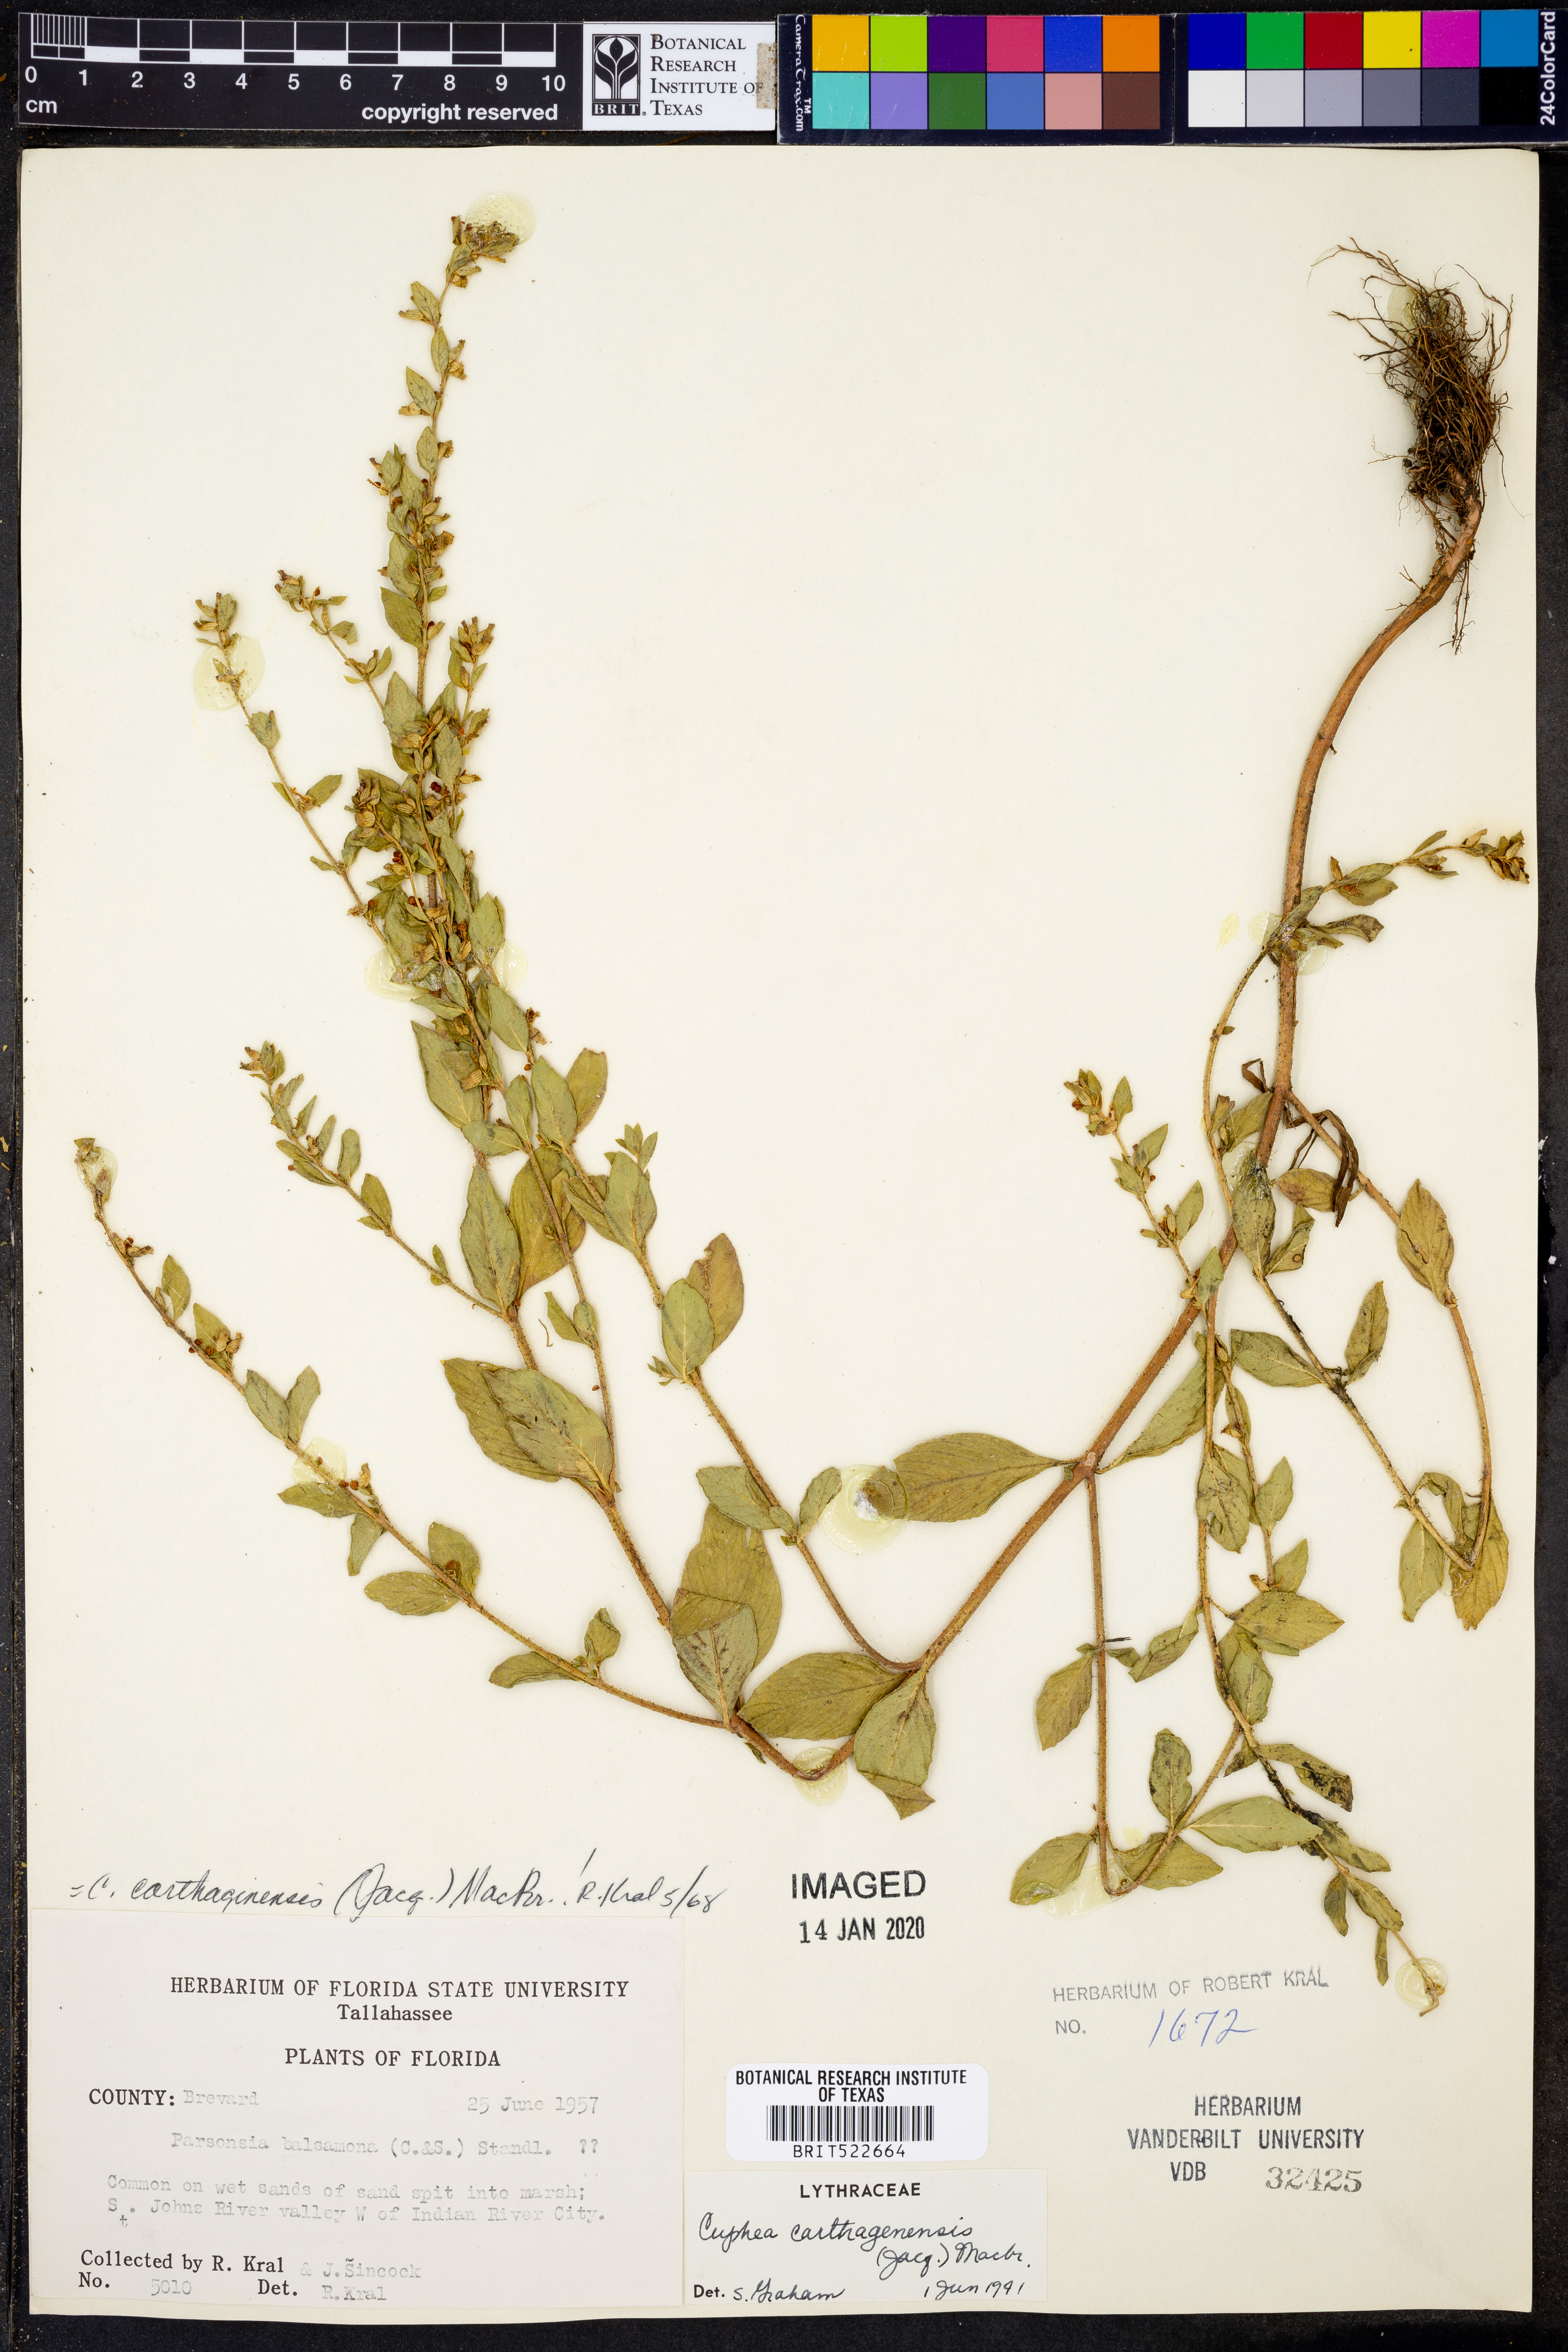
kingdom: Plantae
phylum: Tracheophyta
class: Magnoliopsida
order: Myrtales
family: Lythraceae
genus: Cuphea
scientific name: Cuphea carthagenensis
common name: Colombian waxweed
